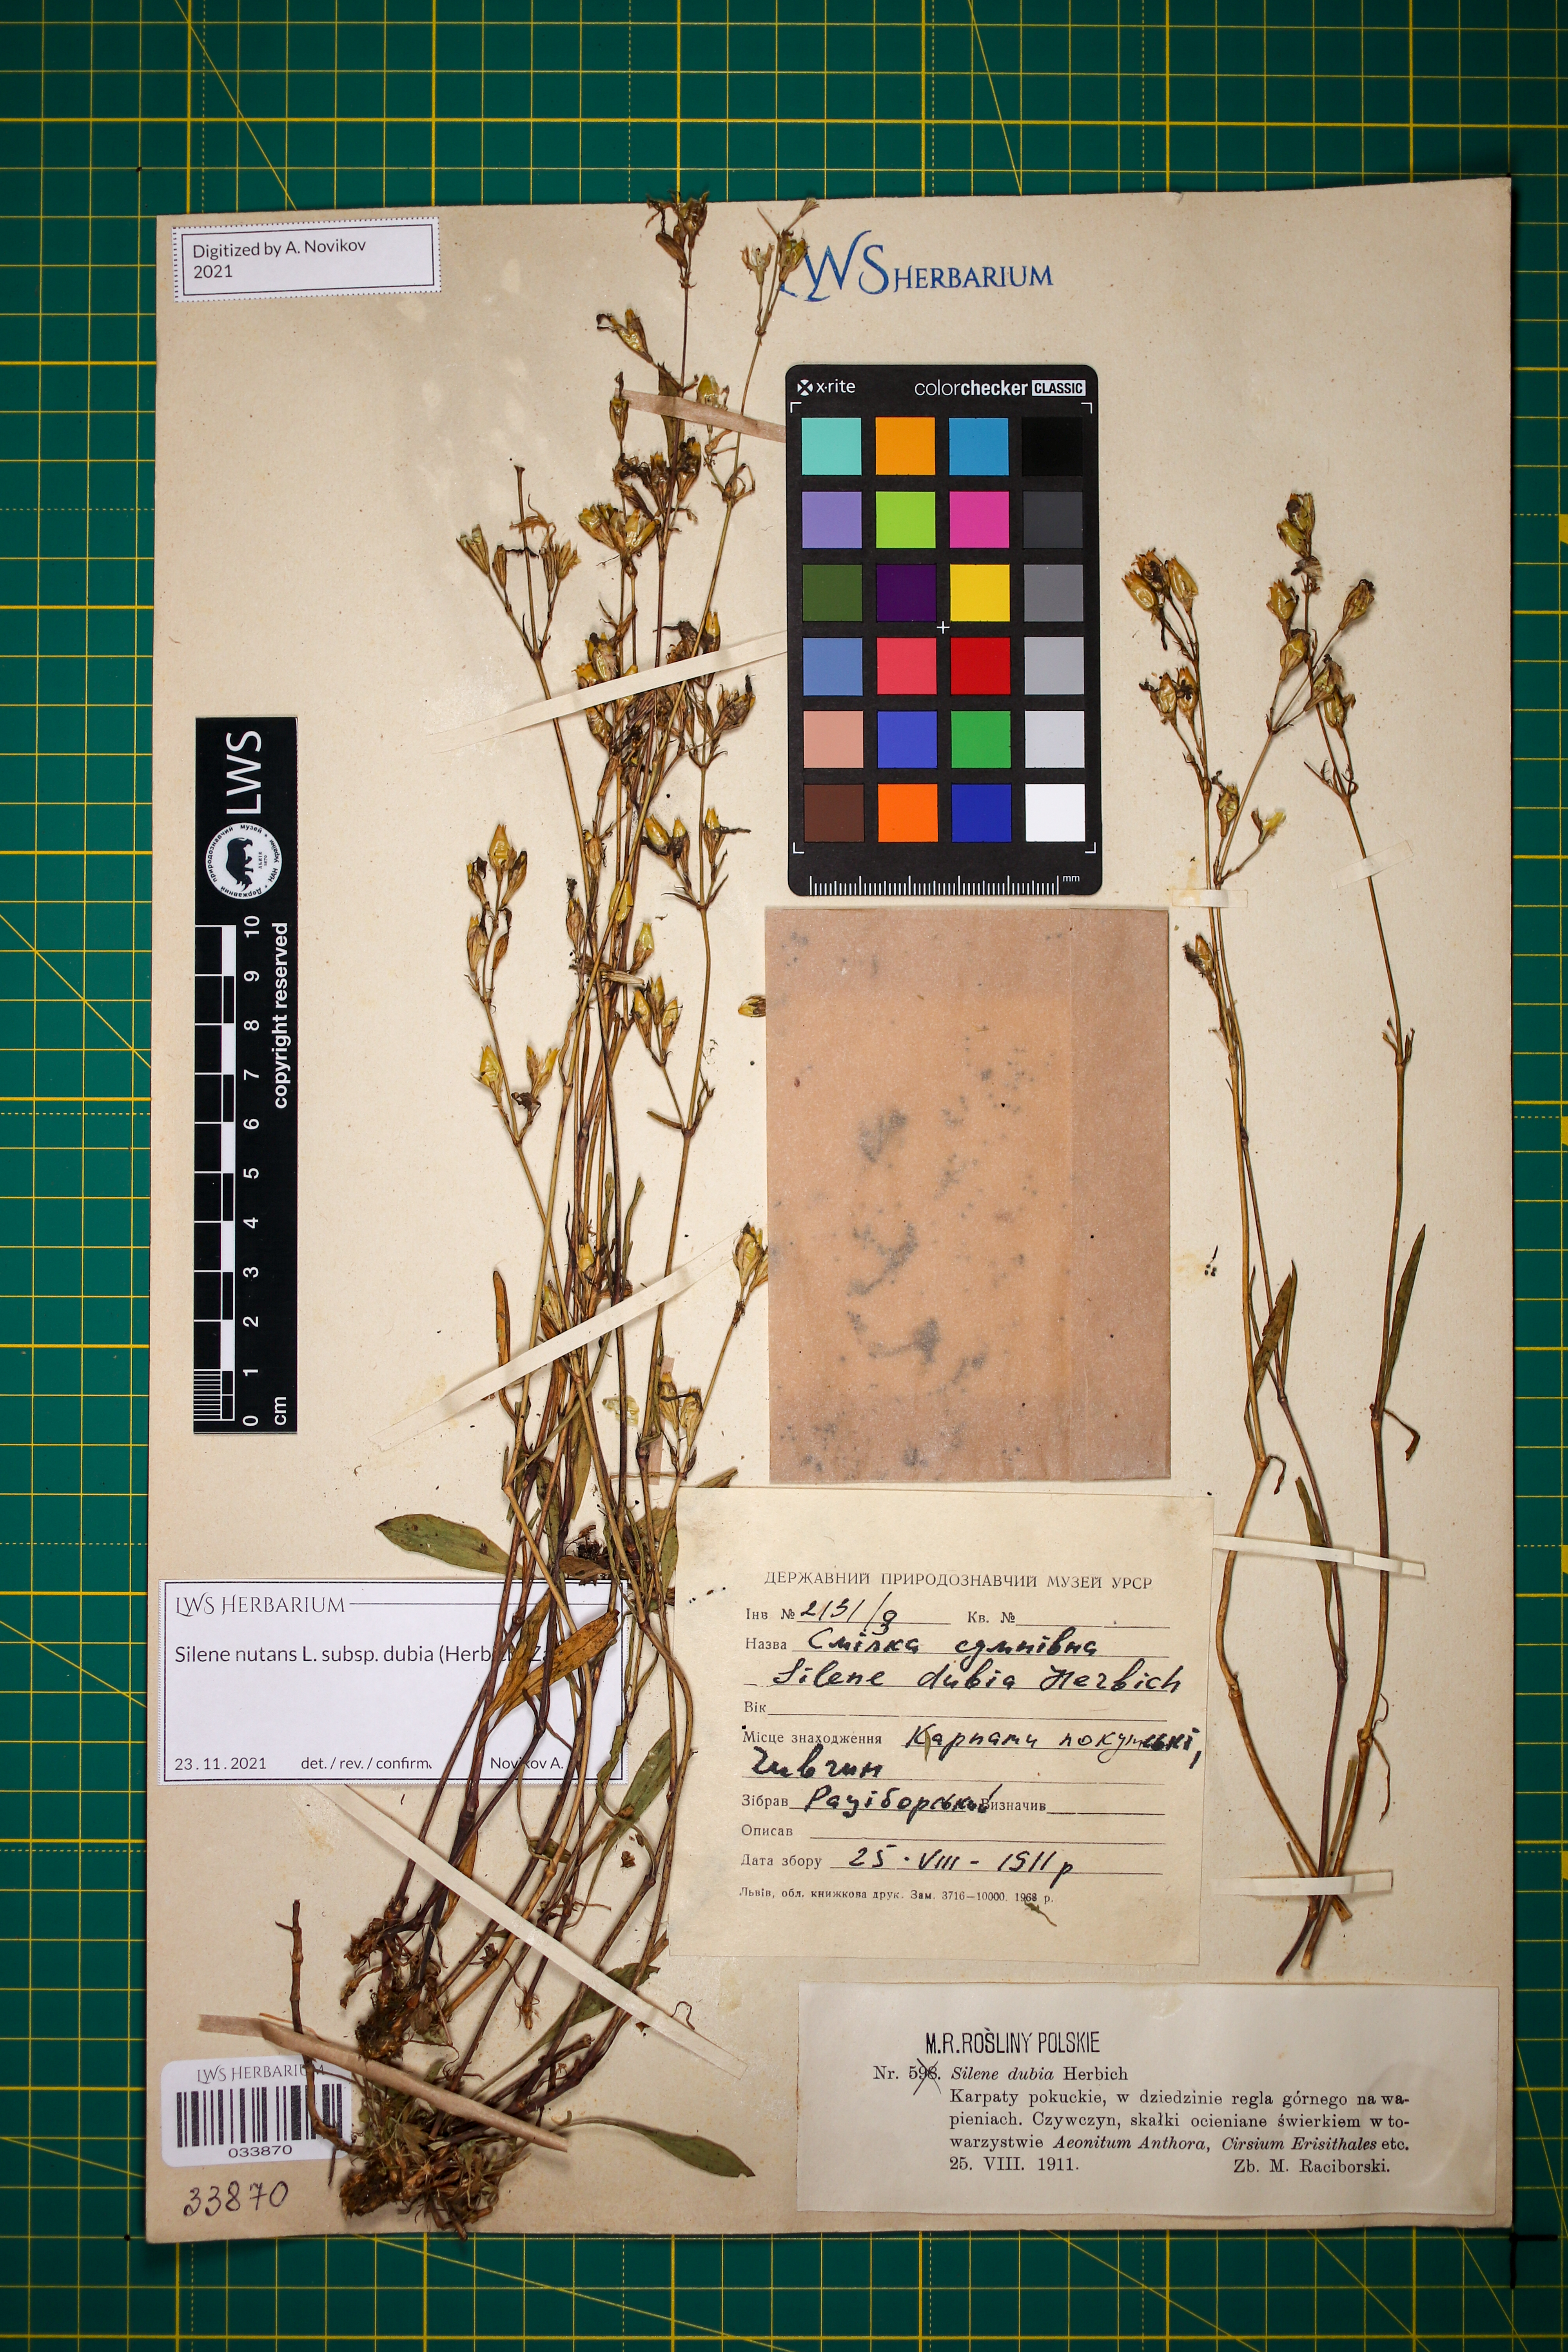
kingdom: Plantae
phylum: Tracheophyta
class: Magnoliopsida
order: Caryophyllales
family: Caryophyllaceae
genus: Silene
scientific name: Silene nutans
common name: Nottingham catchfly
